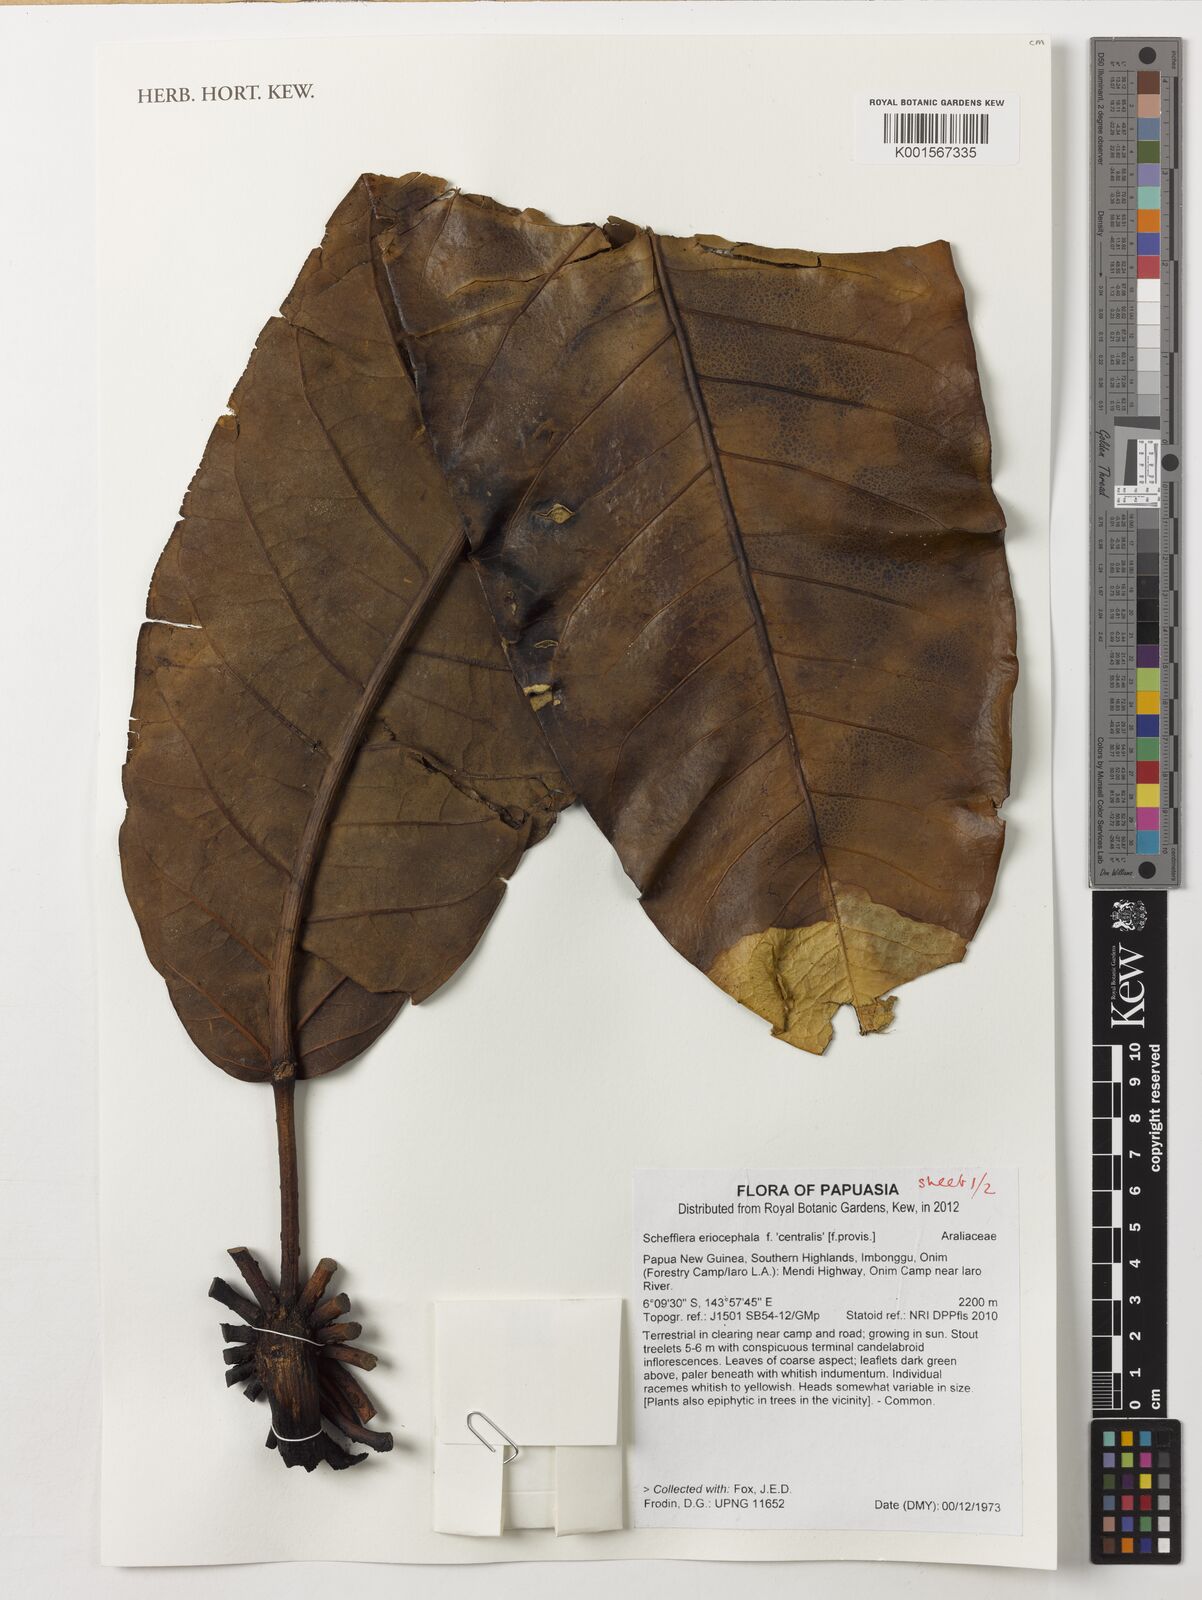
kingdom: Plantae
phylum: Tracheophyta
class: Magnoliopsida
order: Apiales
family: Araliaceae
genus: Heptapleurum
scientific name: Heptapleurum eriocephalum
